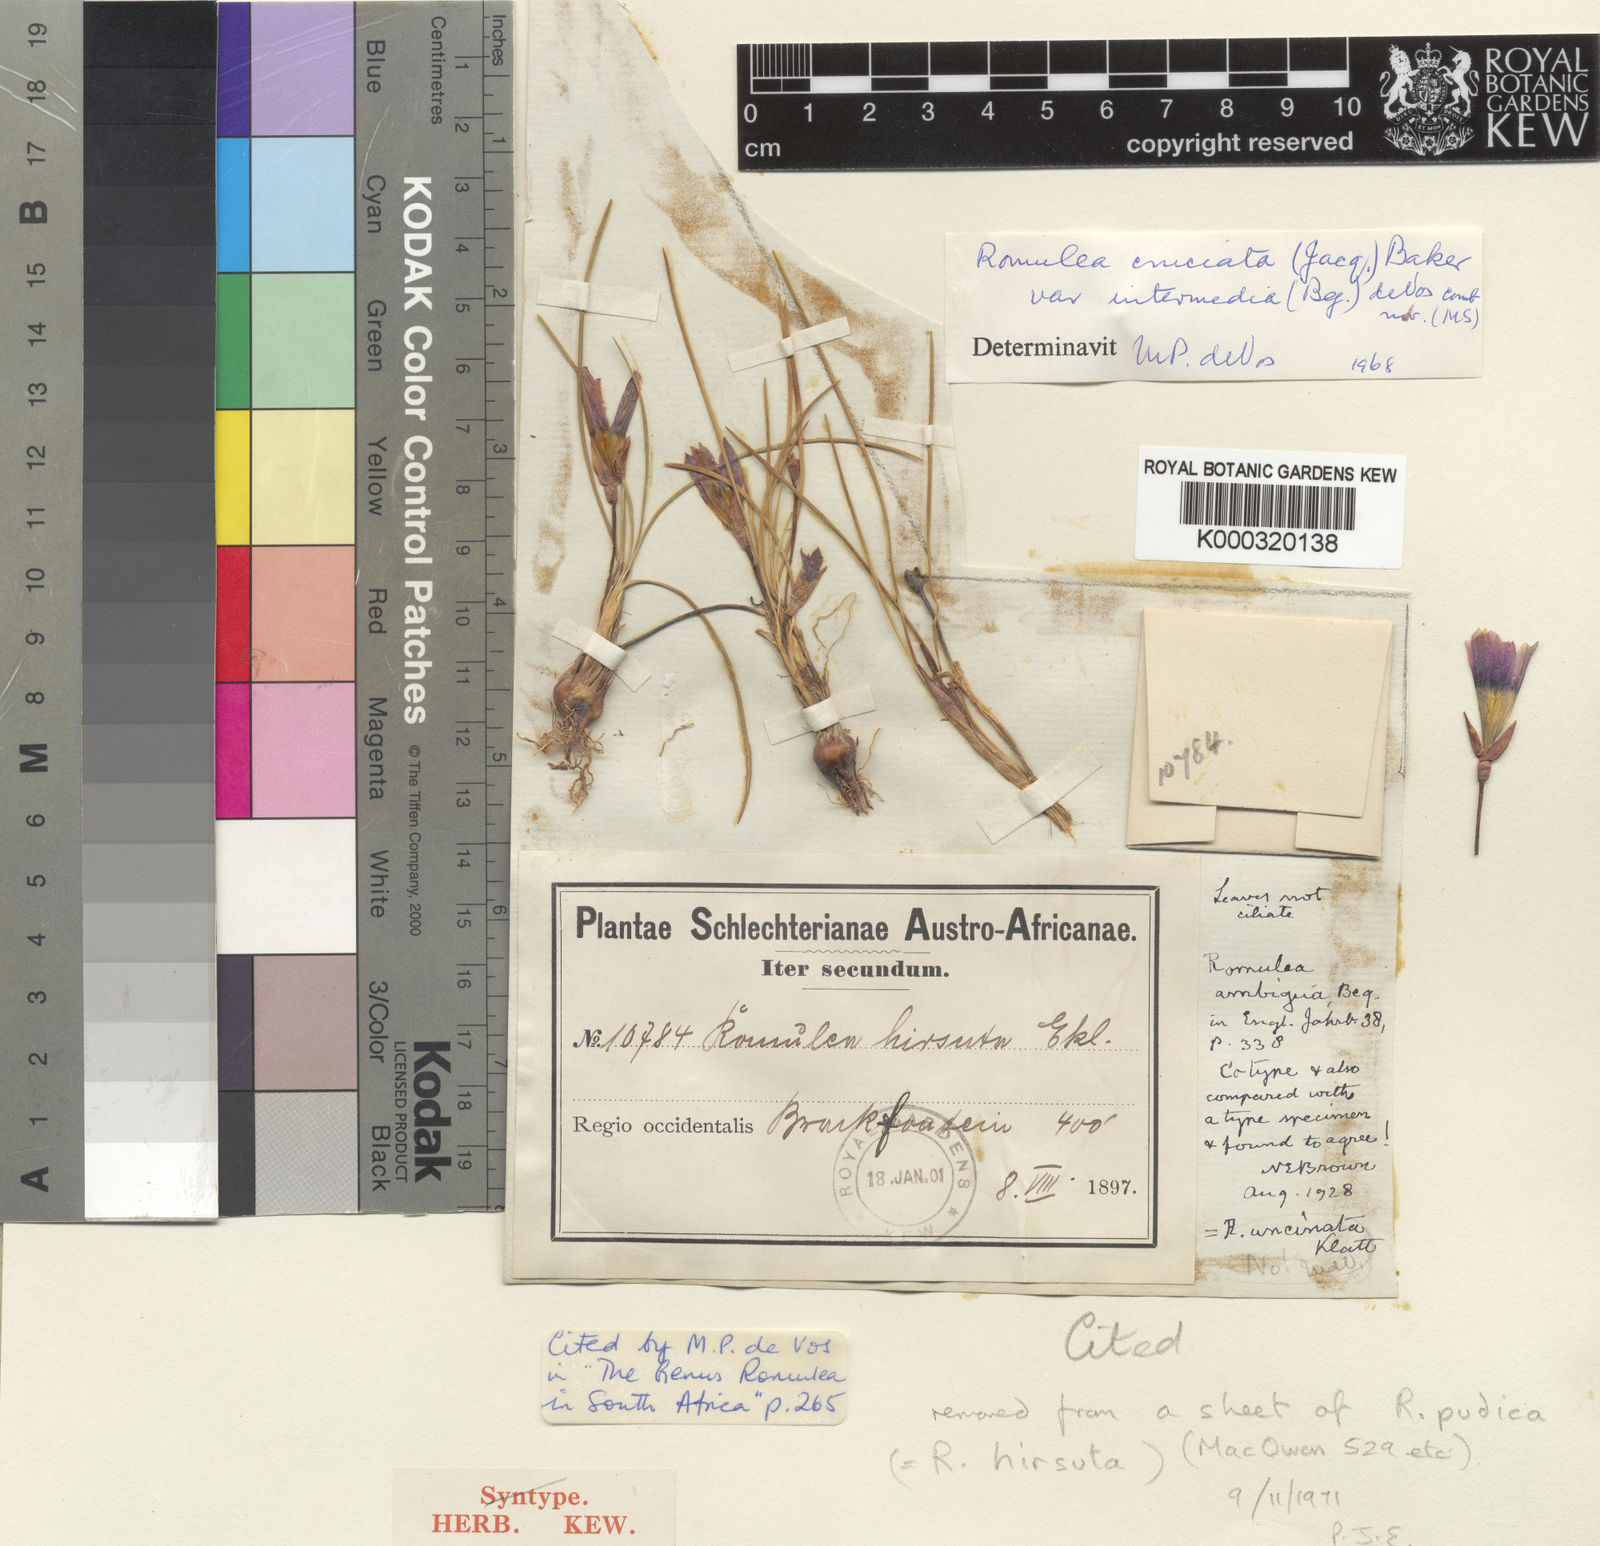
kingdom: Plantae
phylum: Tracheophyta
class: Liliopsida
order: Asparagales
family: Iridaceae
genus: Romulea
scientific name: Romulea
